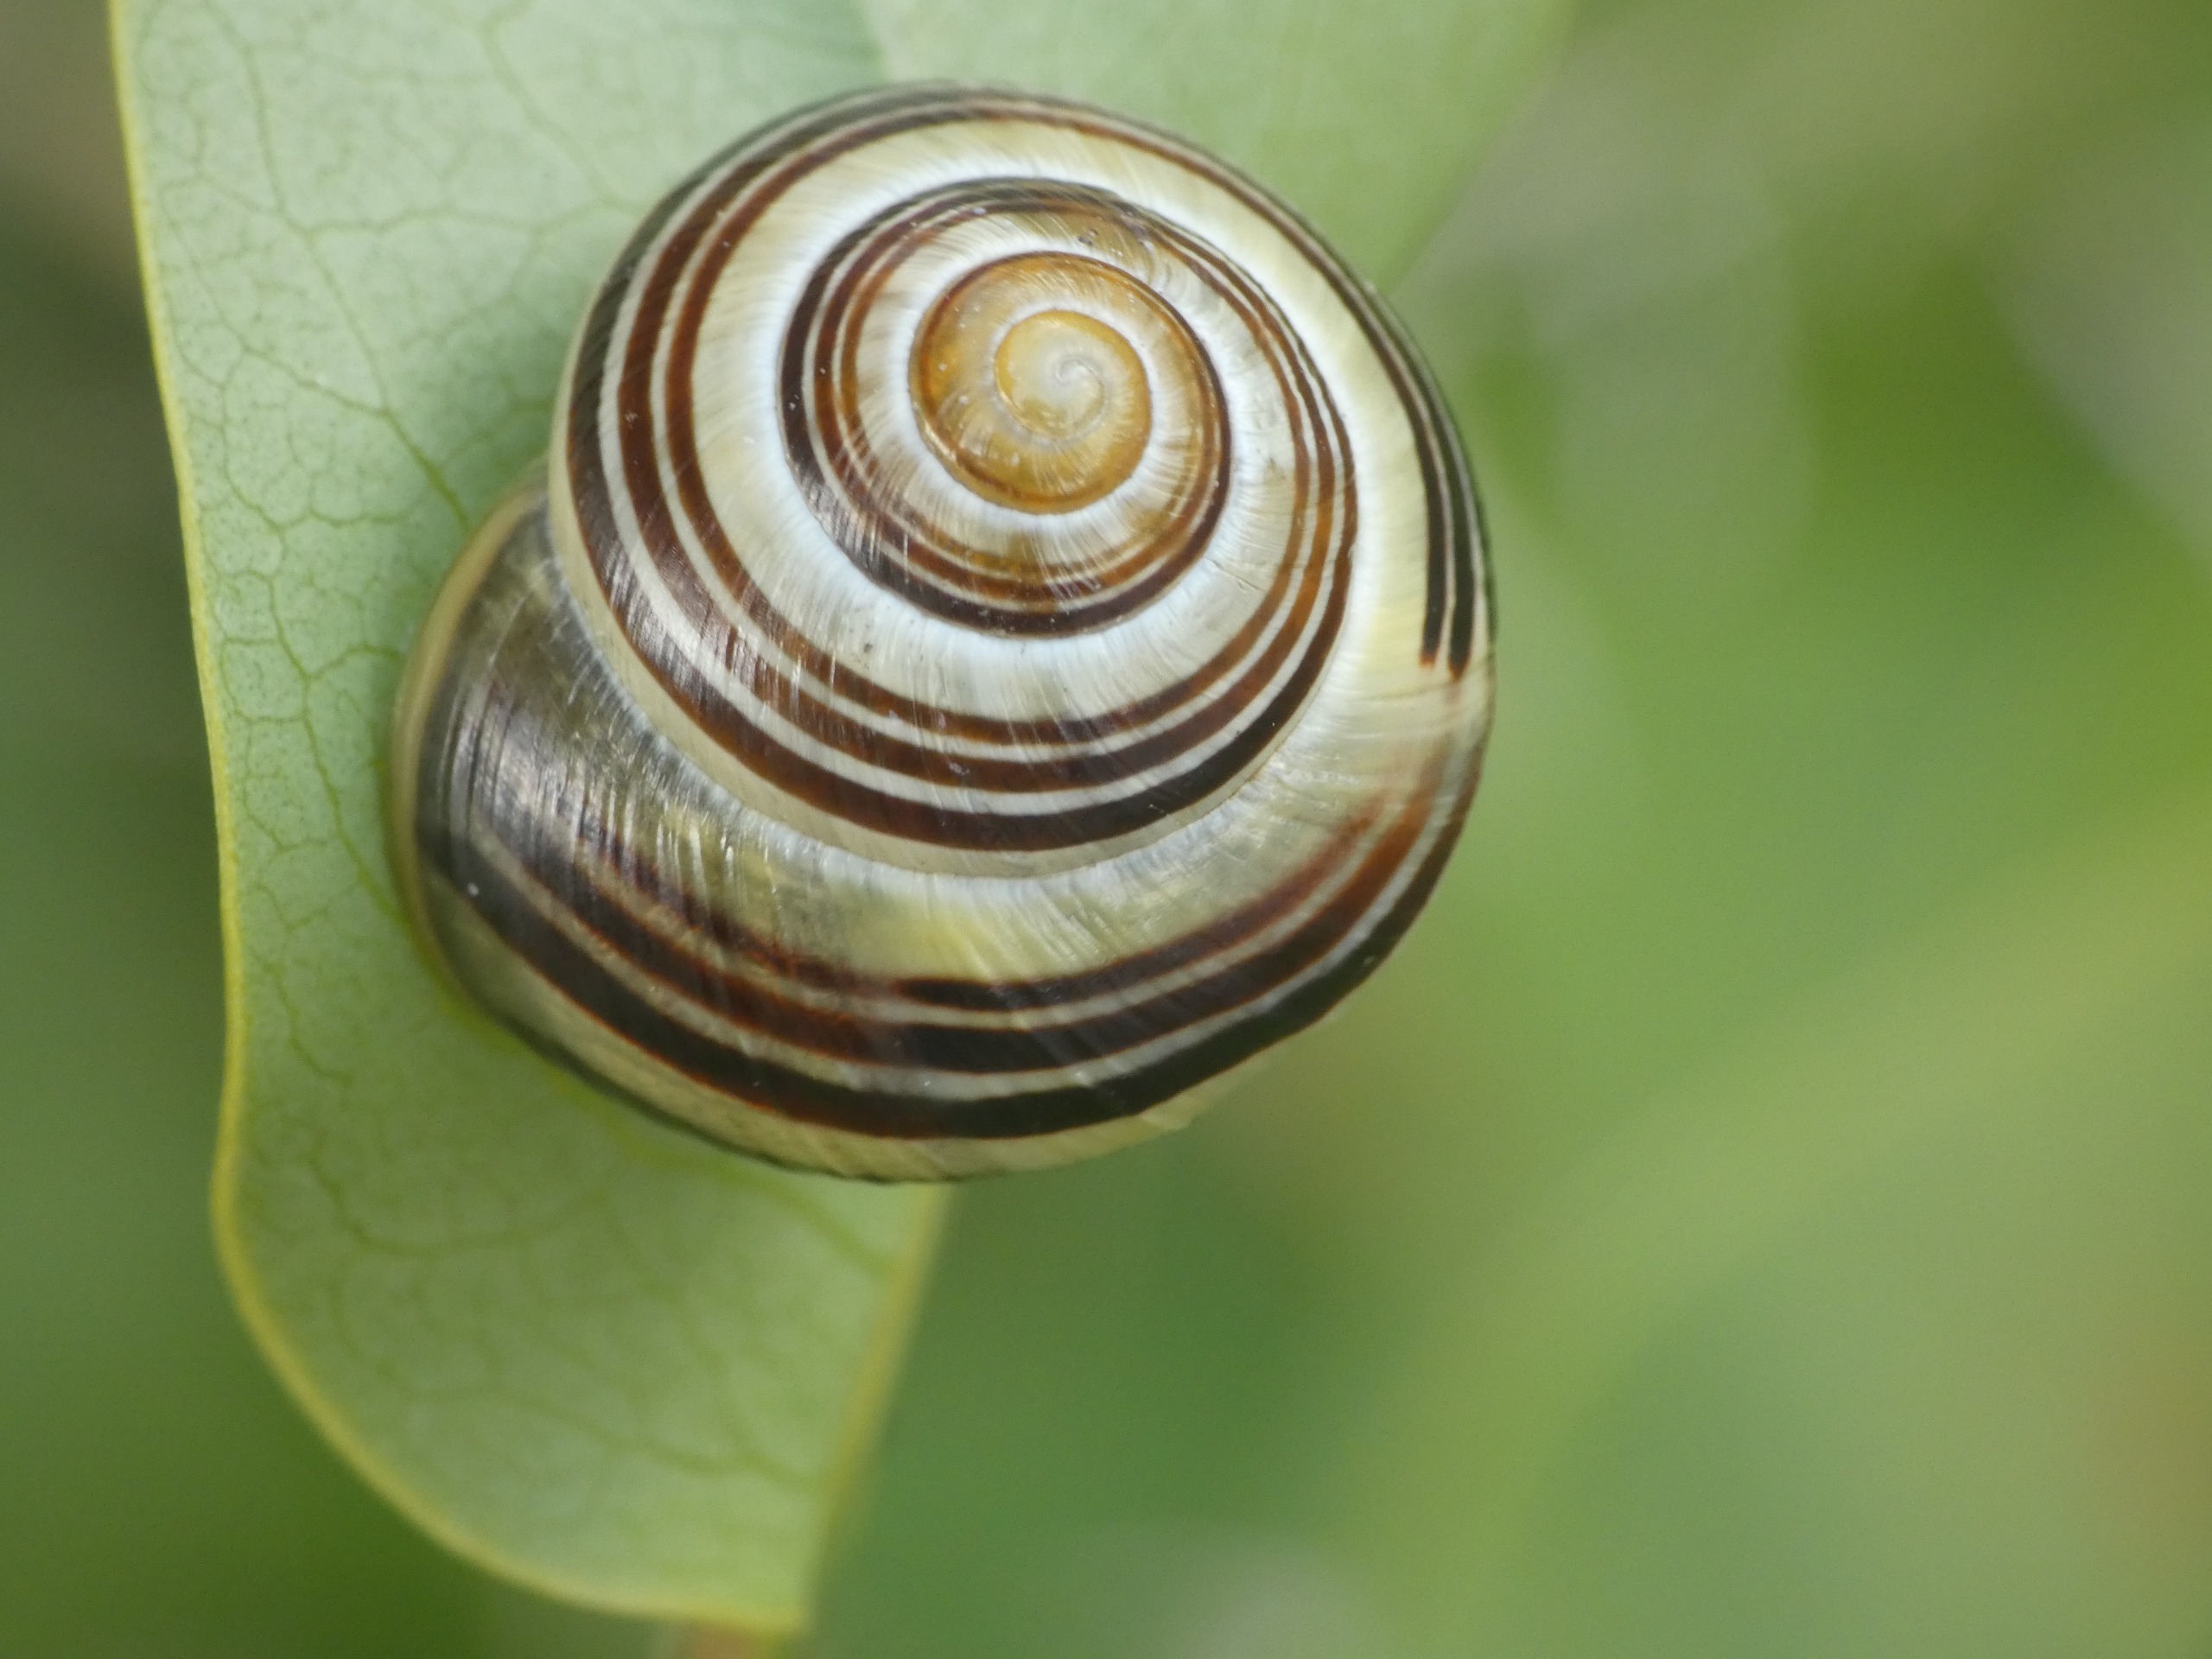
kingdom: Animalia
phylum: Mollusca
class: Gastropoda
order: Stylommatophora
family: Helicidae
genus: Cepaea
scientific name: Cepaea hortensis
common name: Havesnegl
